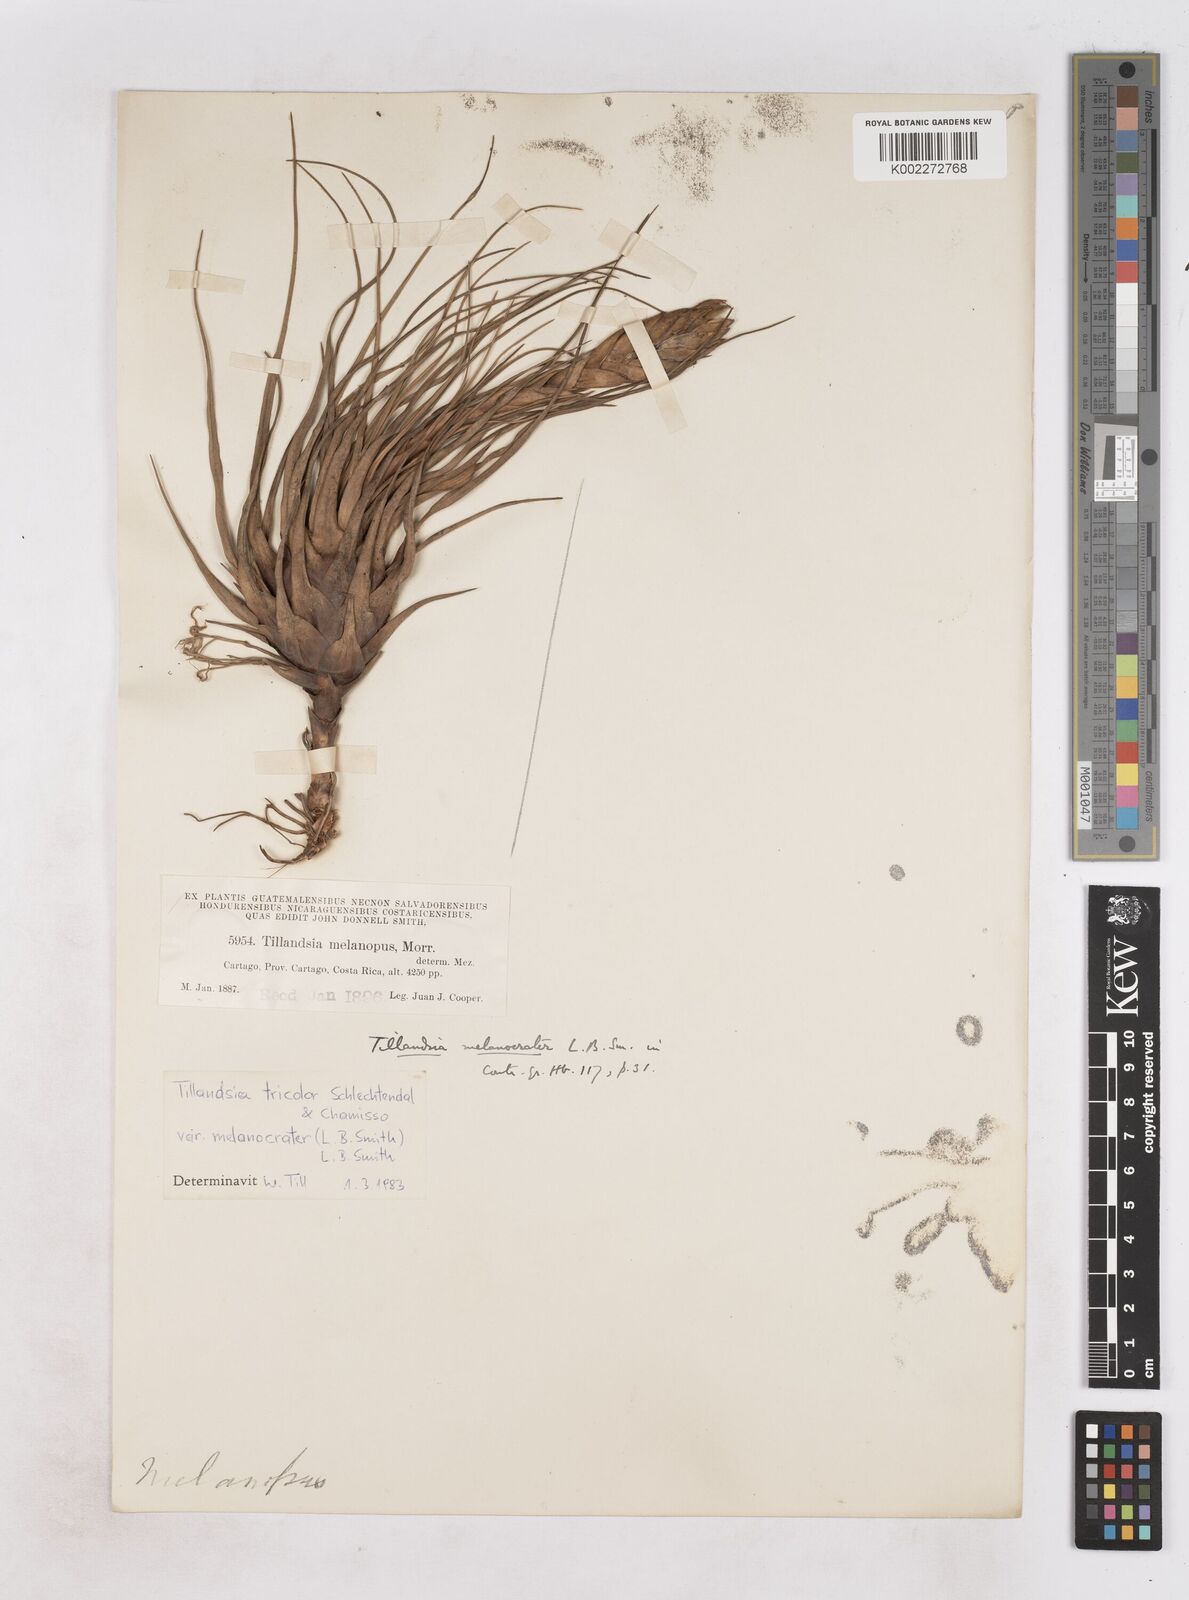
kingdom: Plantae
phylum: Tracheophyta
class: Liliopsida
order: Poales
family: Bromeliaceae
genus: Tillandsia
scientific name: Tillandsia tricolor
